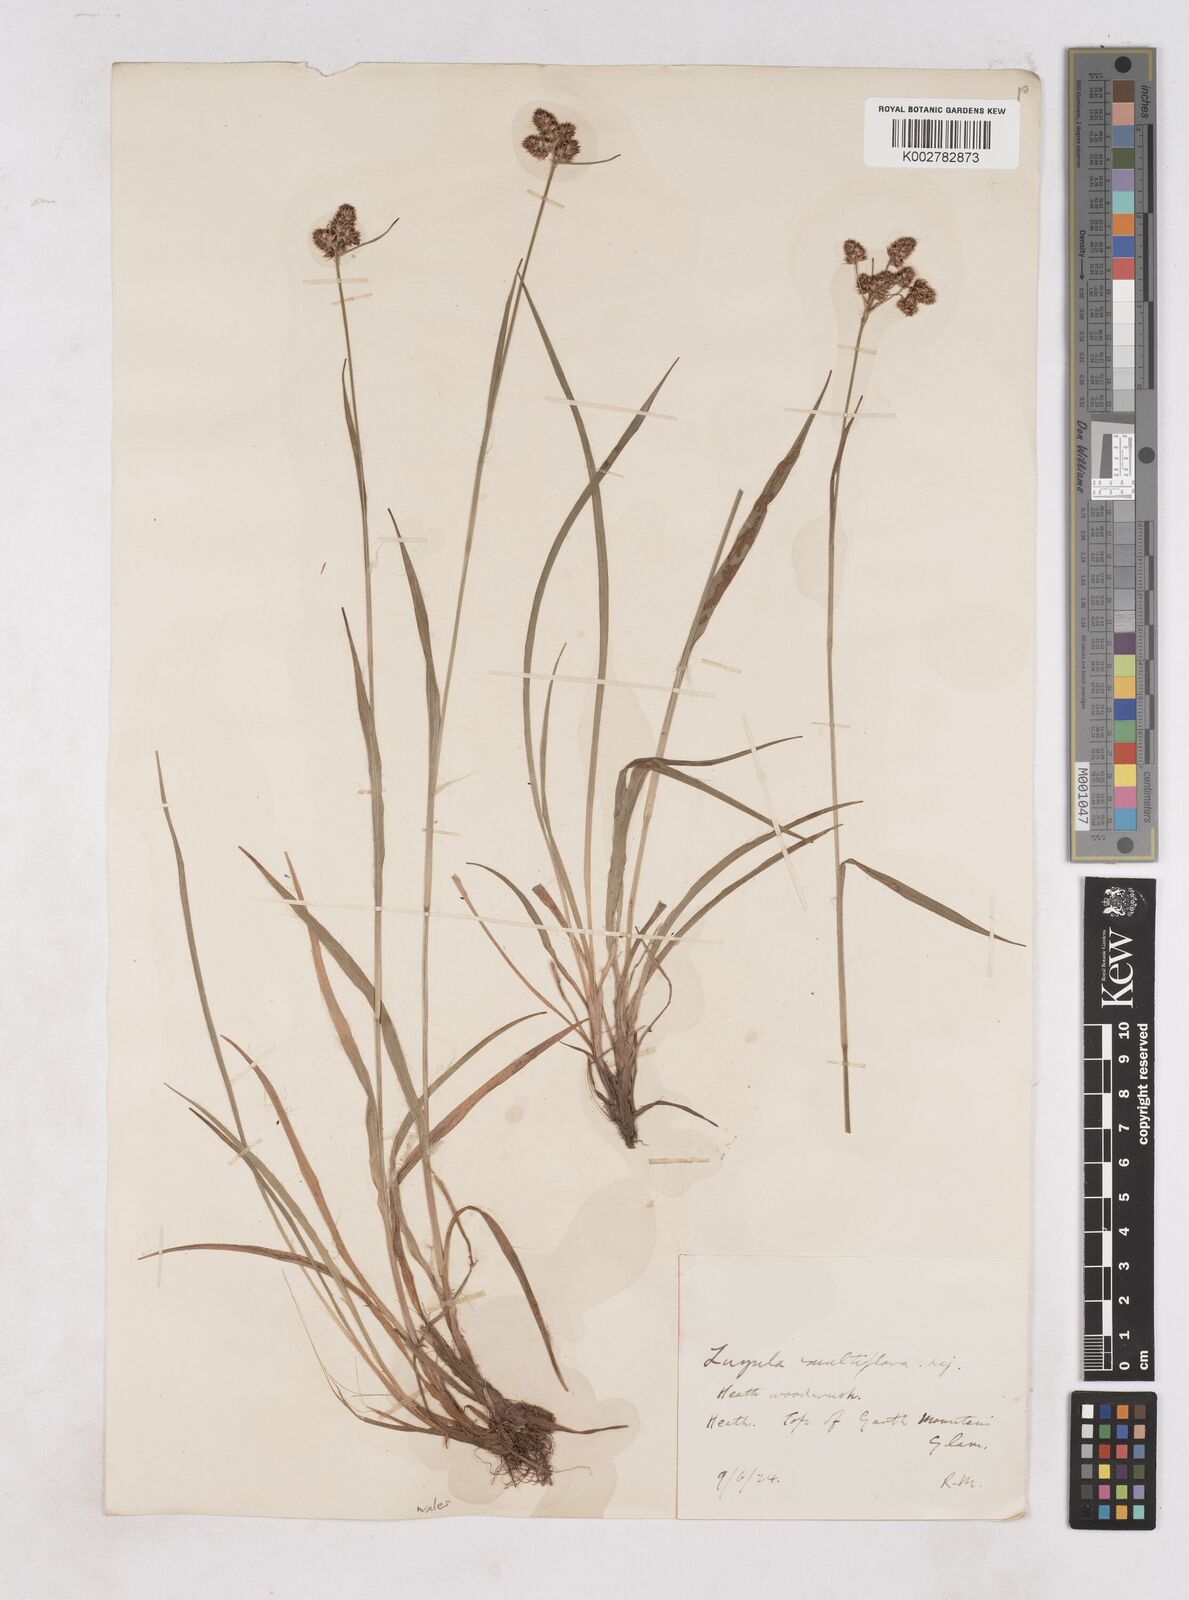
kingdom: Plantae
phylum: Tracheophyta
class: Liliopsida
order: Poales
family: Juncaceae
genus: Luzula
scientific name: Luzula campestris
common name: Field wood-rush
